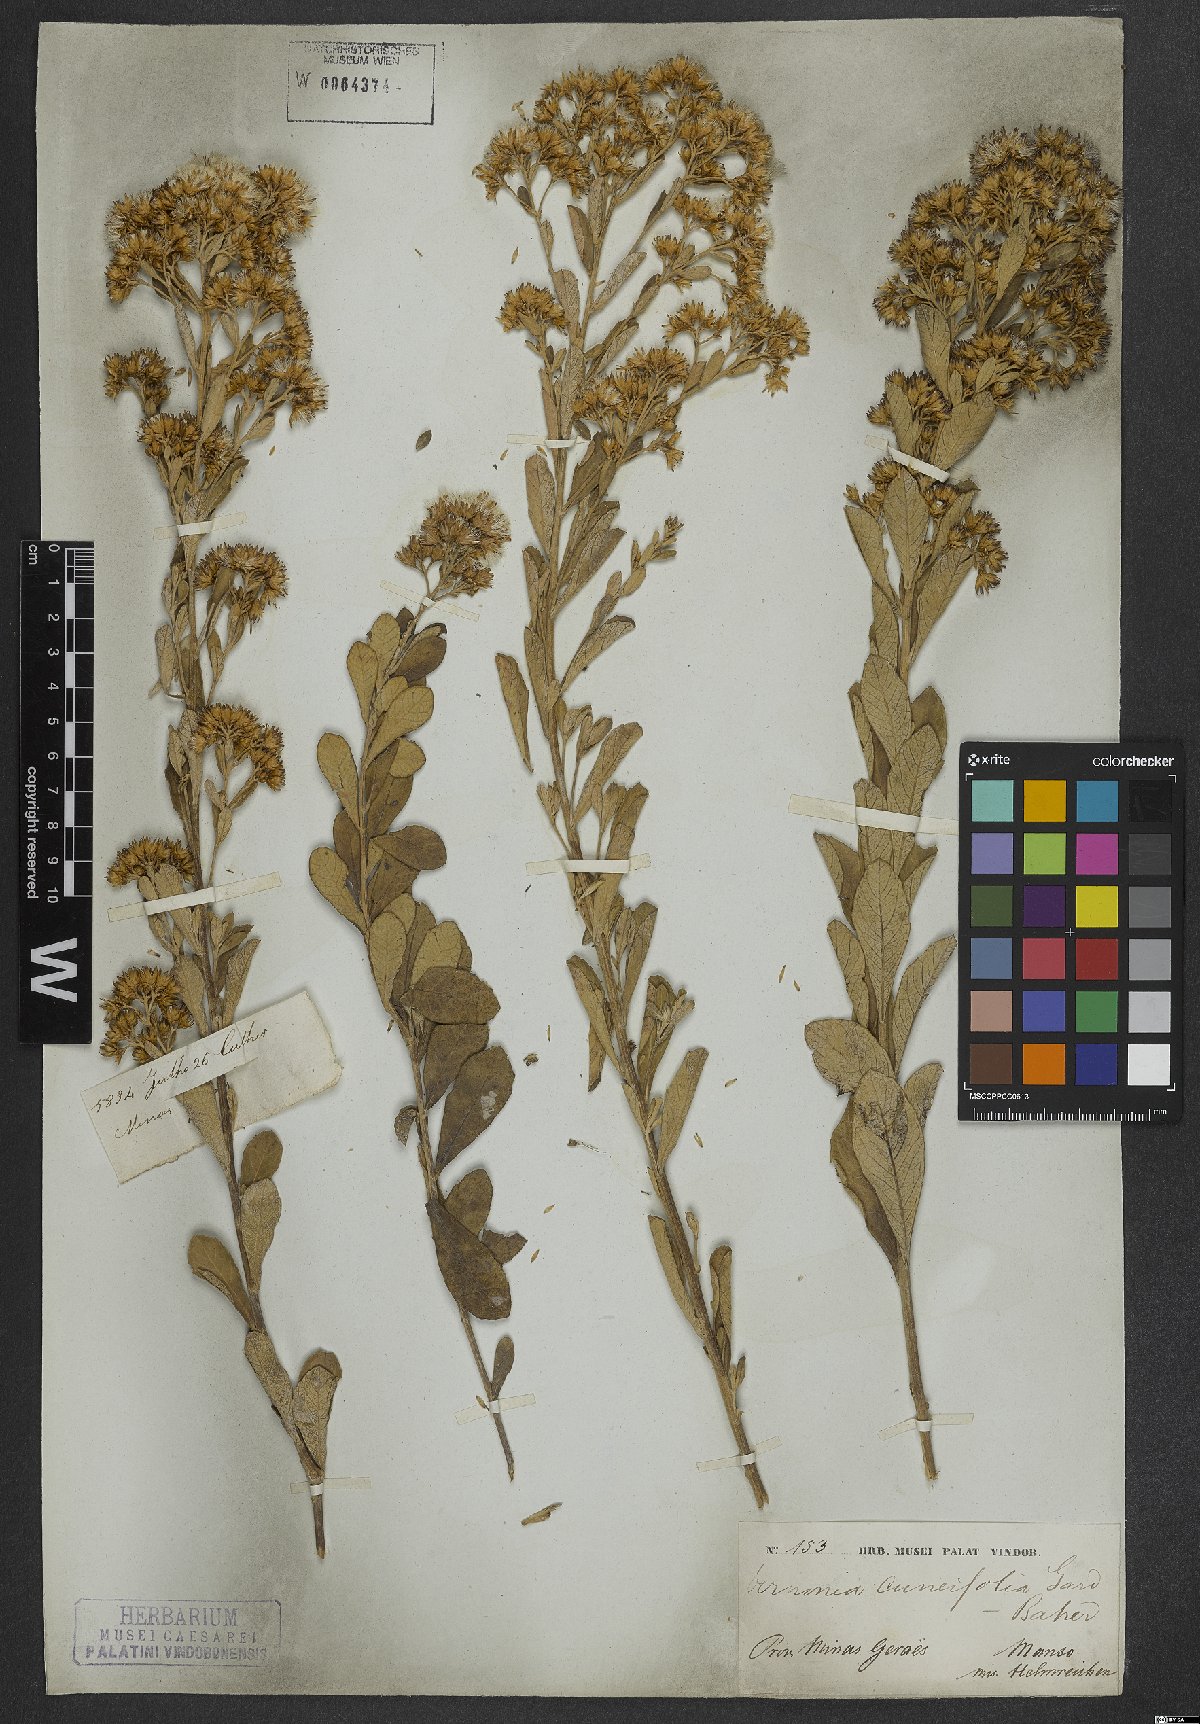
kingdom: Plantae
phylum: Tracheophyta
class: Magnoliopsida
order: Asterales
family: Asteraceae
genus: Vernonanthura
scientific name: Vernonanthura cuneifolia
